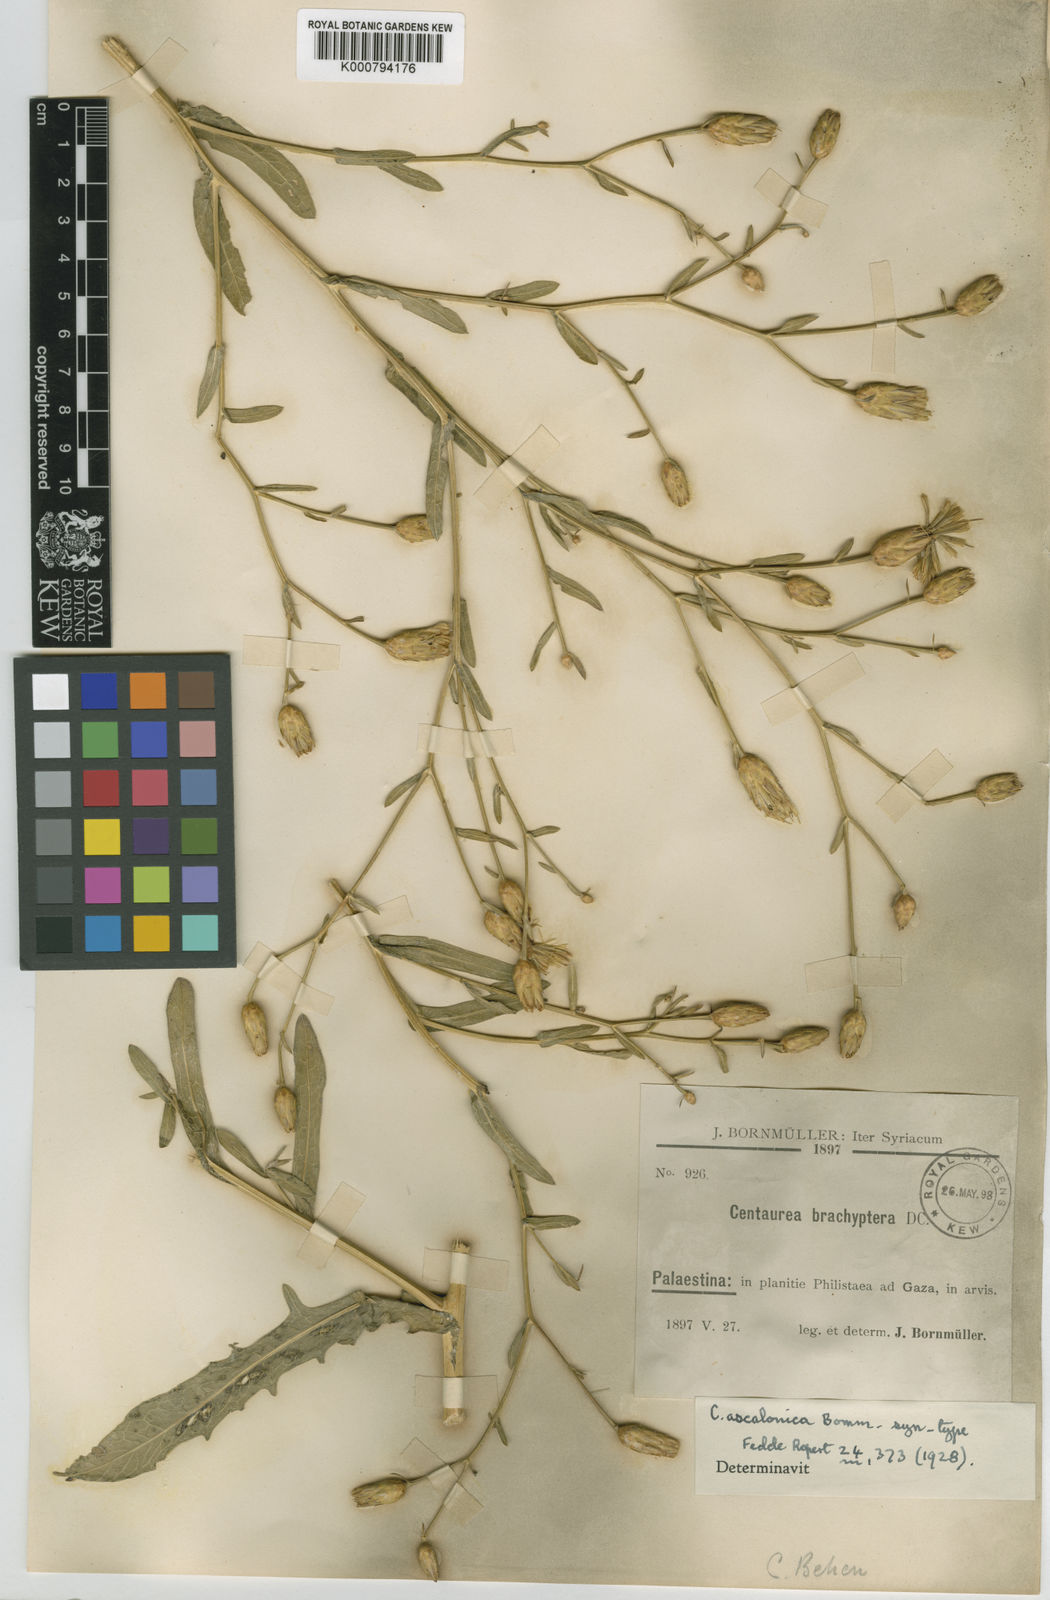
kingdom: Plantae
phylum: Tracheophyta
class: Magnoliopsida
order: Asterales
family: Asteraceae
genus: Centaurea
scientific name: Centaurea ascalonica
